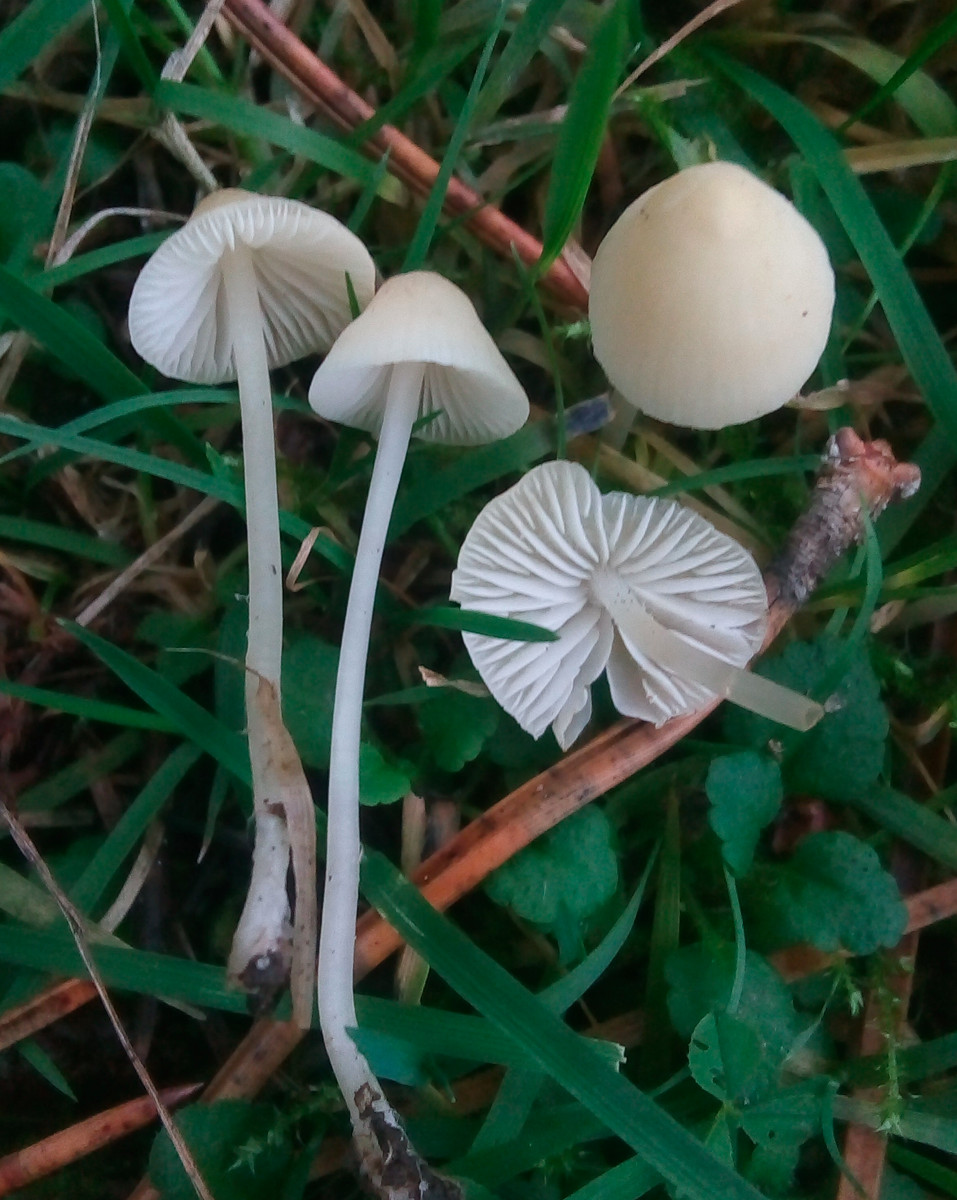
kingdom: Fungi
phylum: Basidiomycota
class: Agaricomycetes
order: Agaricales
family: Mycenaceae
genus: Atheniella
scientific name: Atheniella flavoalba
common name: gulhvid huesvamp
